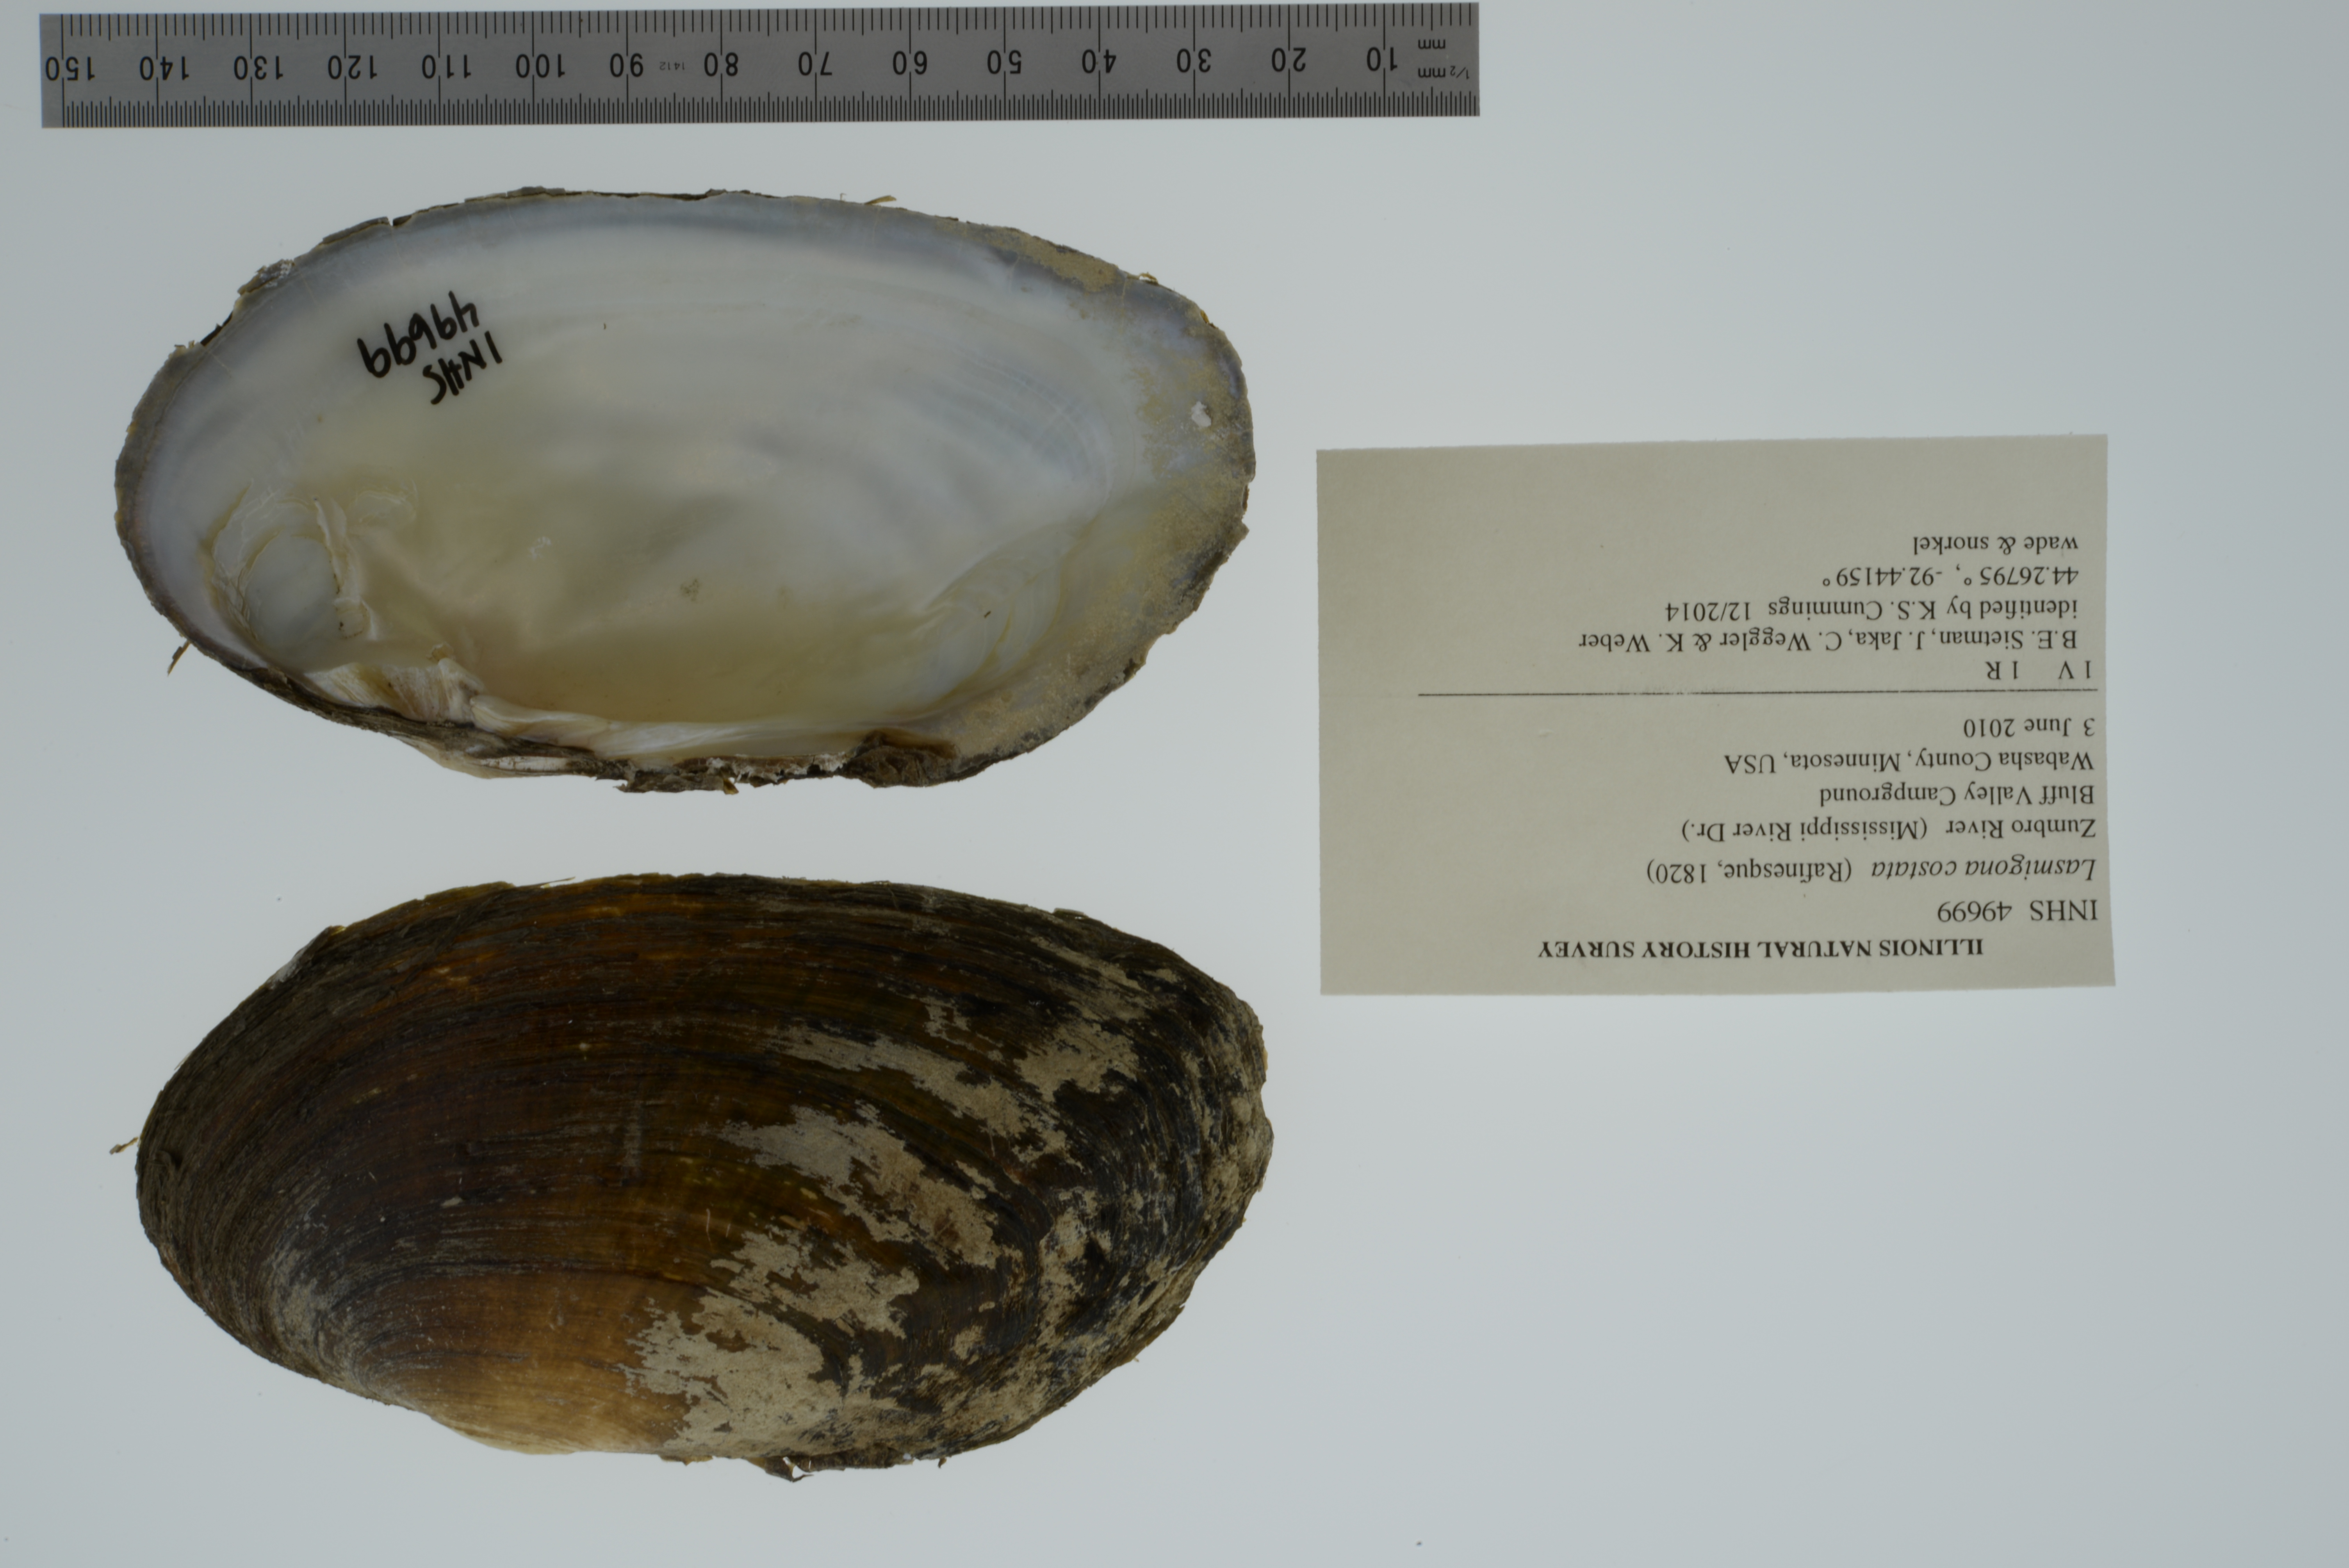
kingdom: Animalia
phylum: Mollusca
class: Bivalvia
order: Unionida
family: Unionidae
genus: Lasmigona
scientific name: Lasmigona costata
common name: Flutedshell
